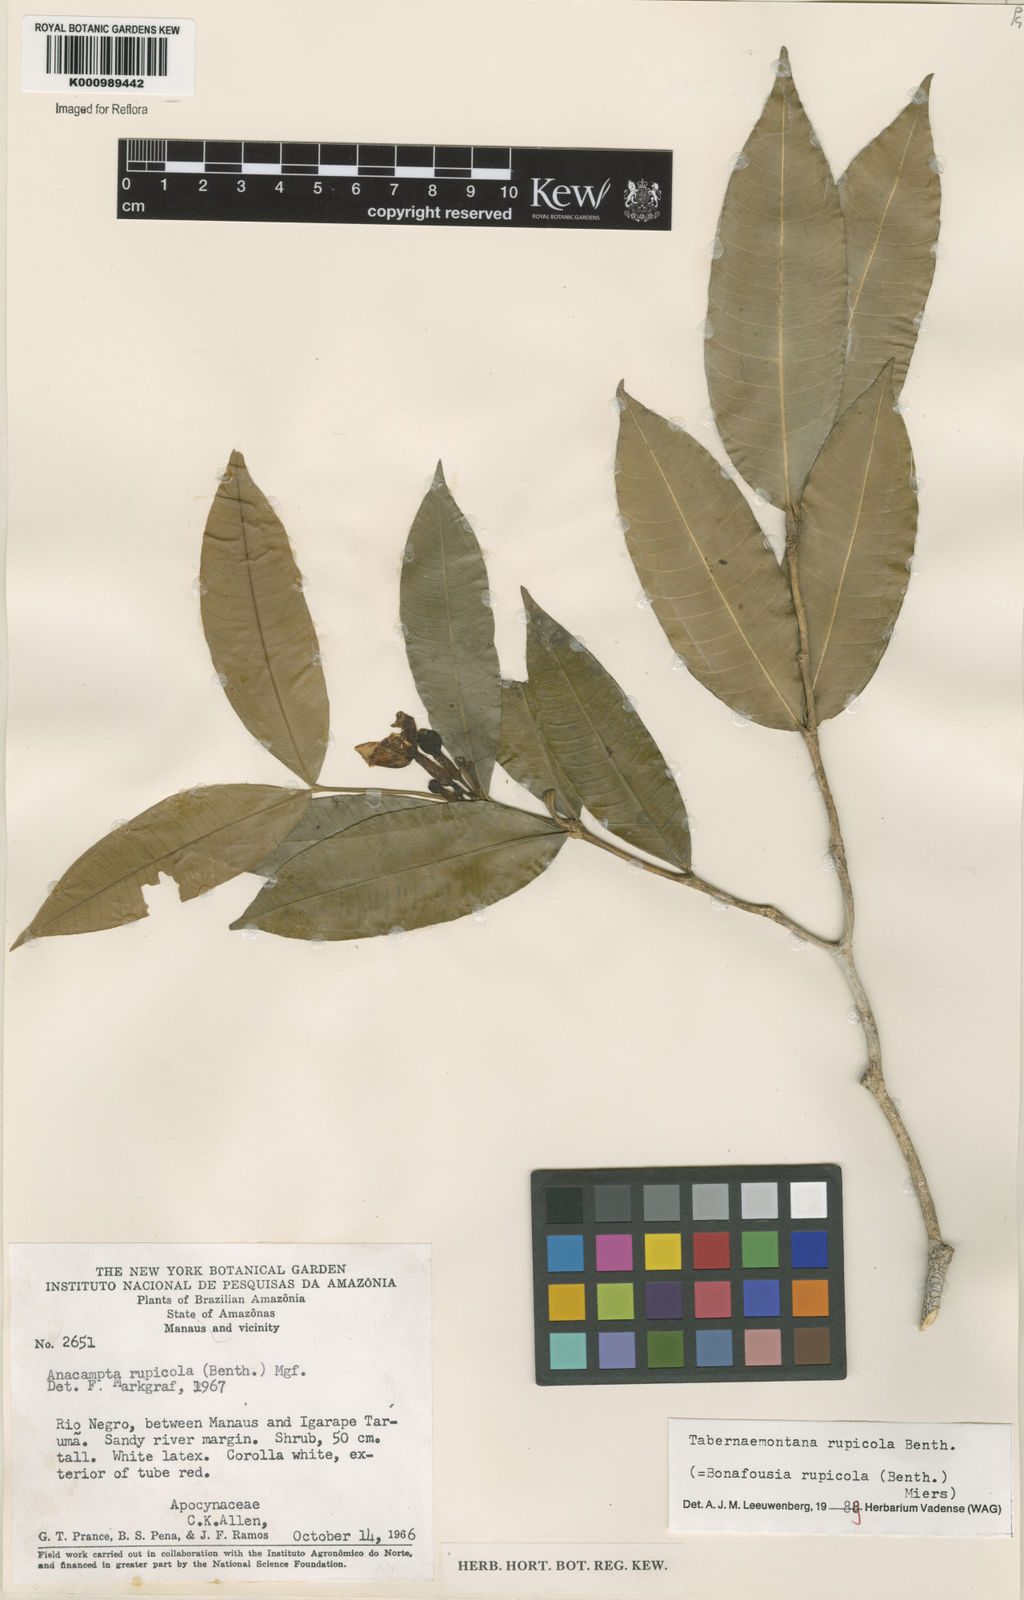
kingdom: Plantae
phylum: Tracheophyta
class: Magnoliopsida
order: Gentianales
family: Apocynaceae
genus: Tabernaemontana
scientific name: Tabernaemontana rupicola
